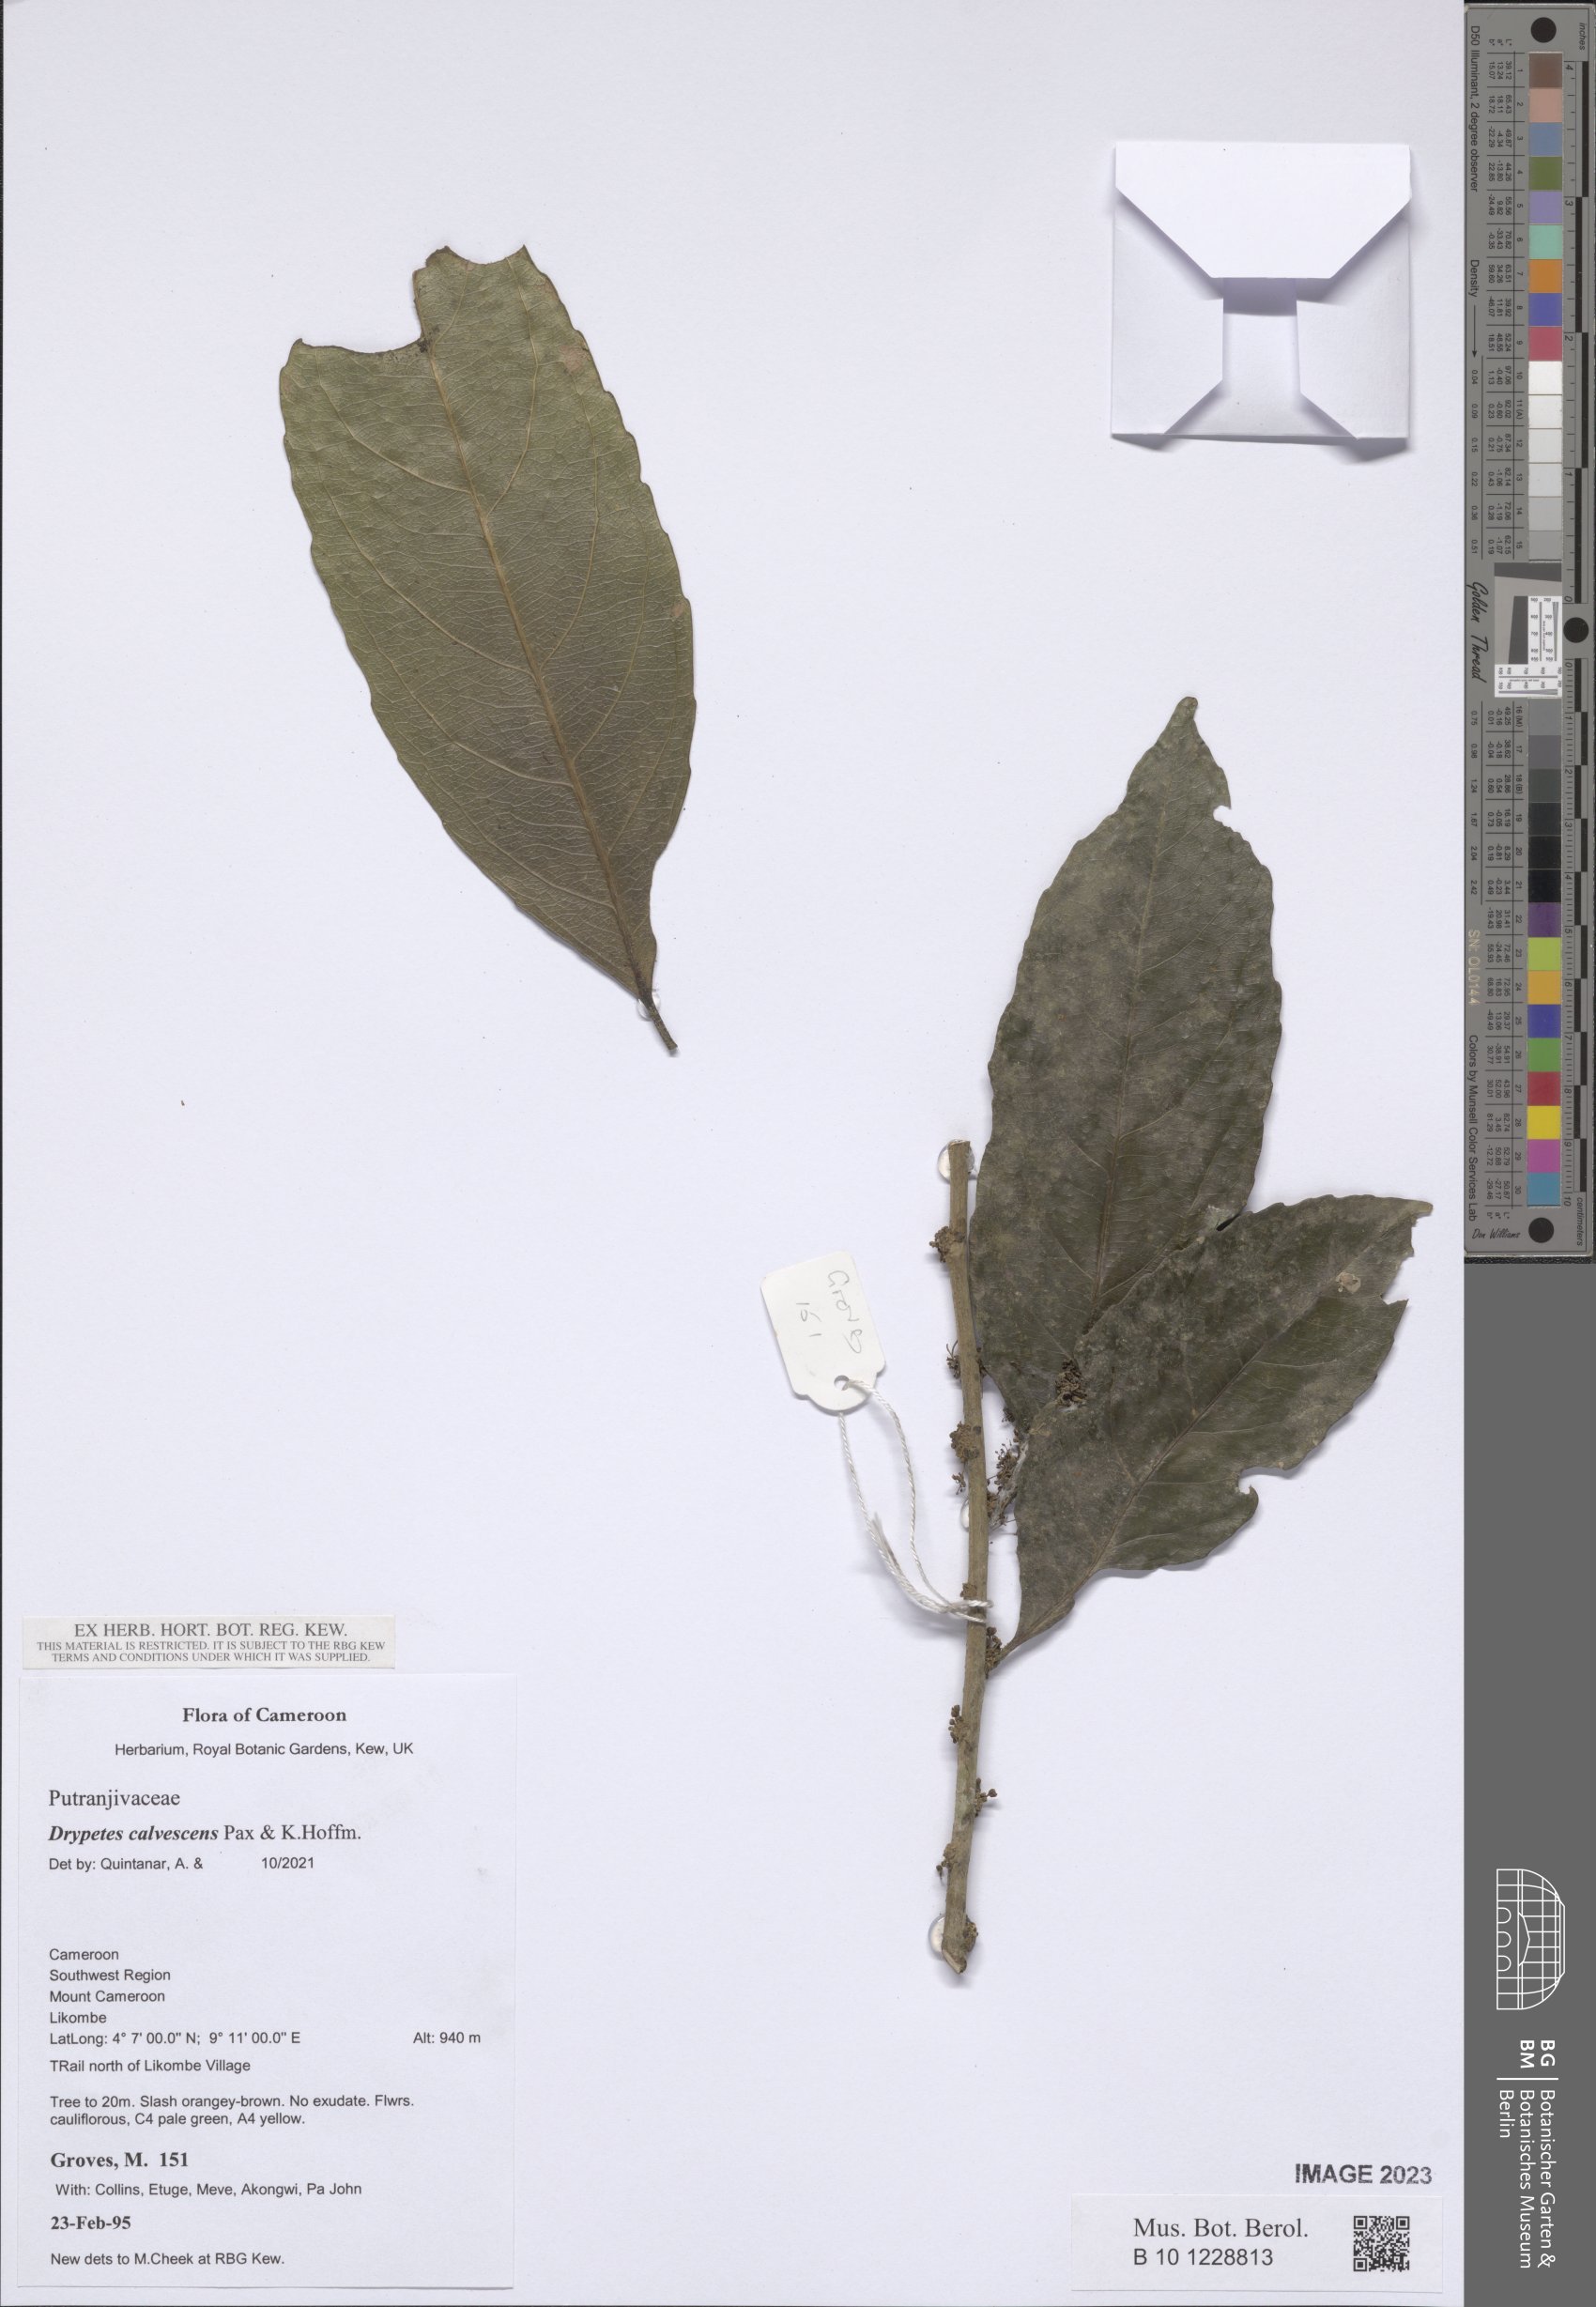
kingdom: Plantae
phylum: Tracheophyta
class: Magnoliopsida
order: Malpighiales
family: Putranjivaceae
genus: Drypetes
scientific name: Drypetes calvescens
